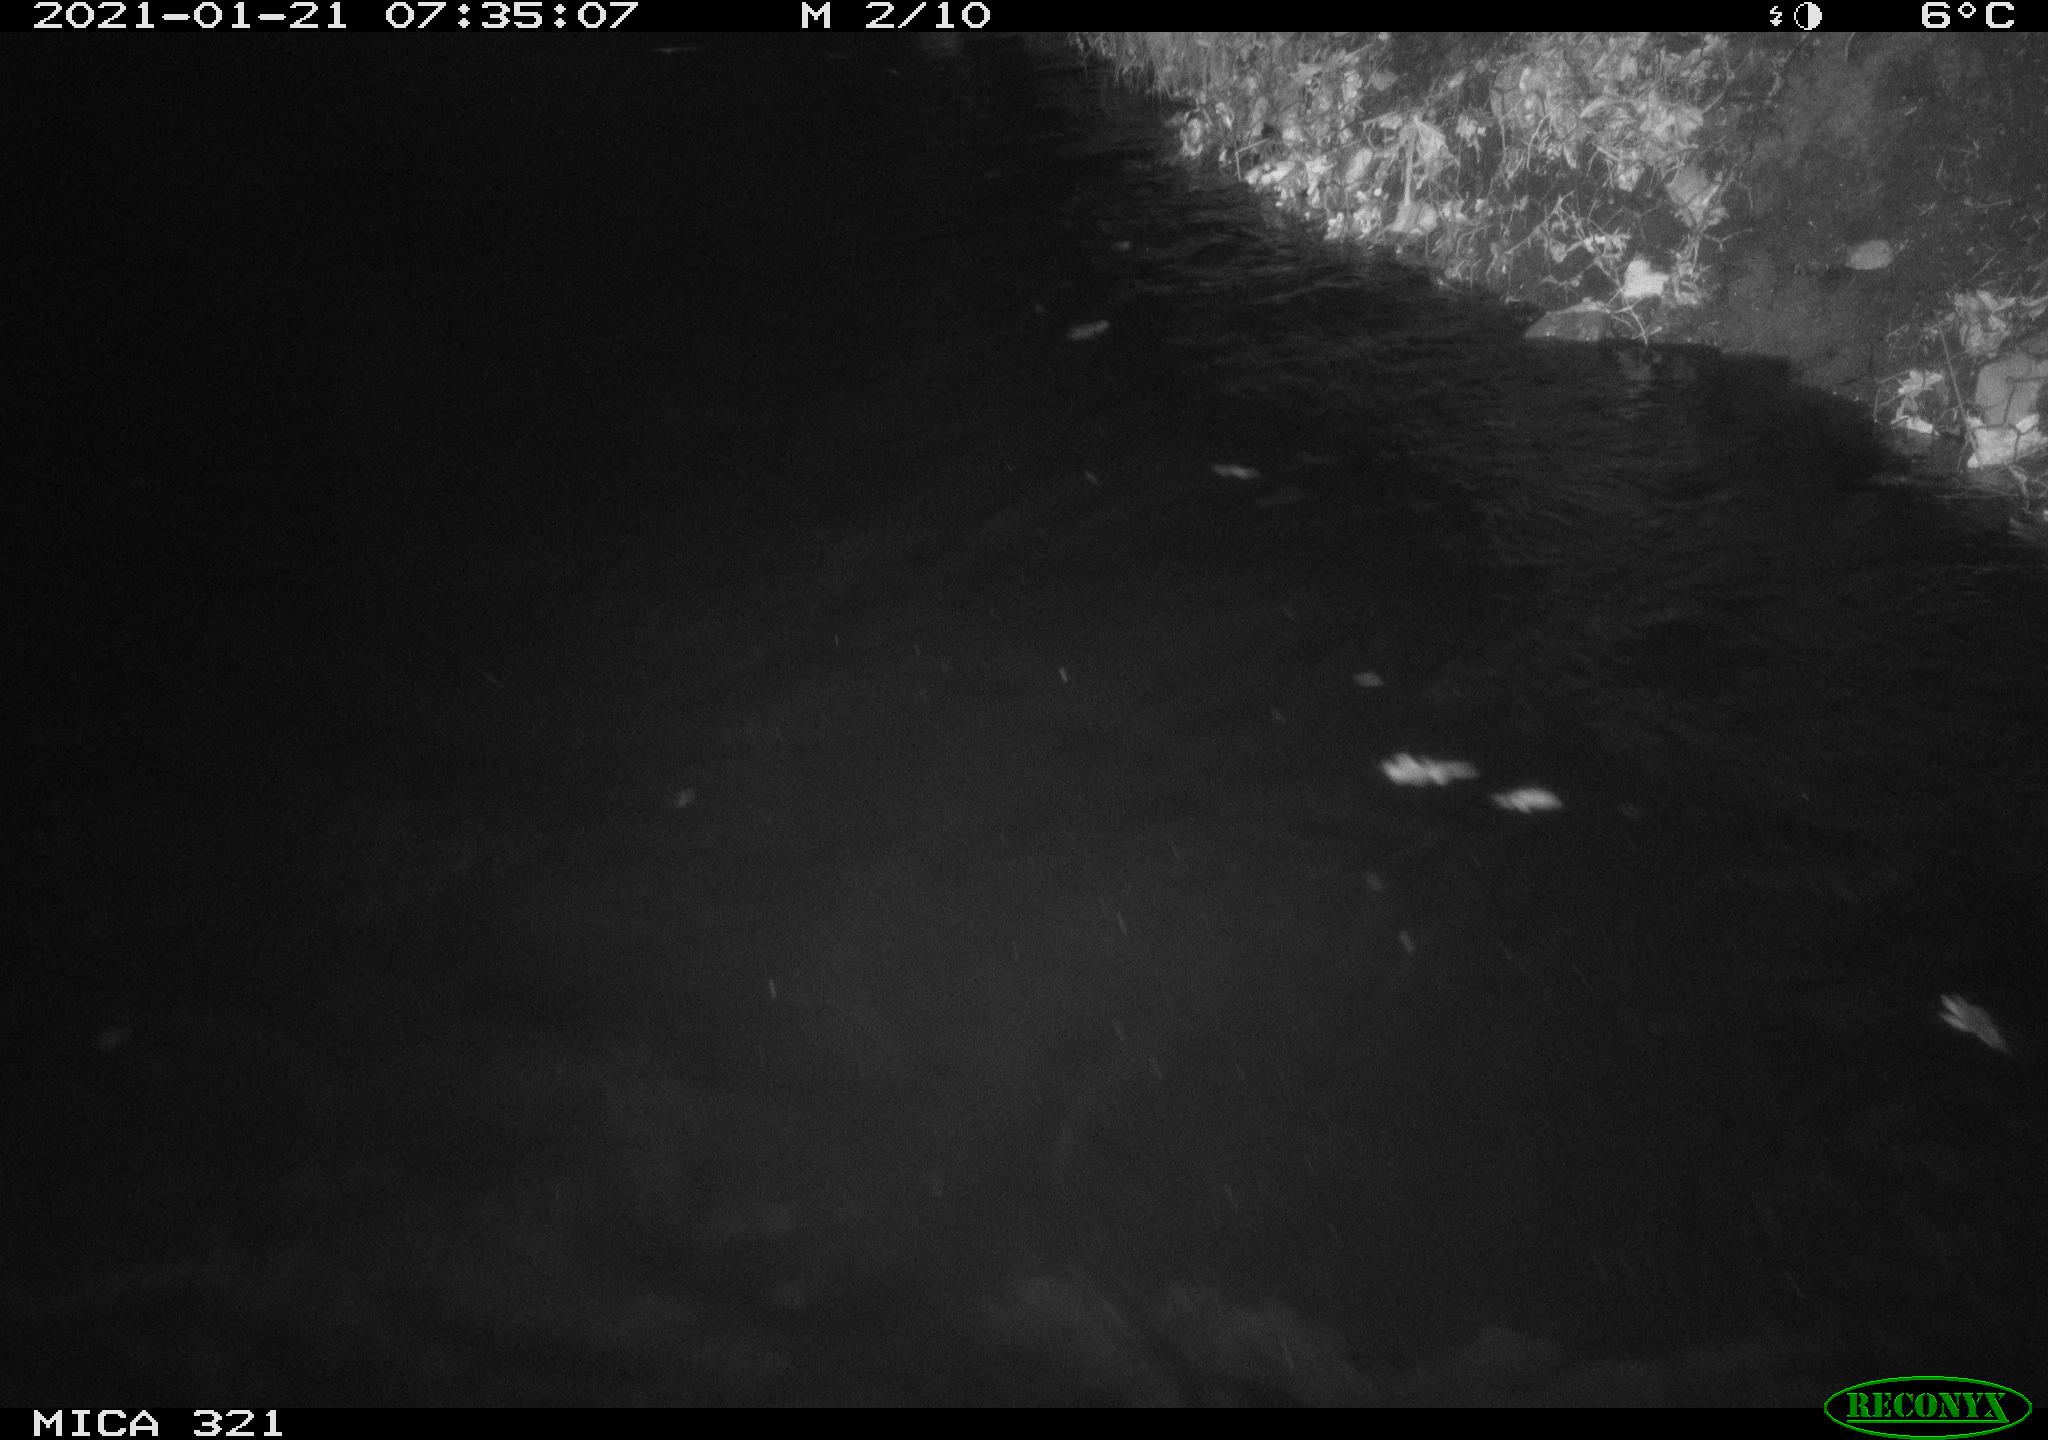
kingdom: Animalia
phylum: Chordata
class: Aves
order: Anseriformes
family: Anatidae
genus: Anas
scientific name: Anas platyrhynchos
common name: Mallard
